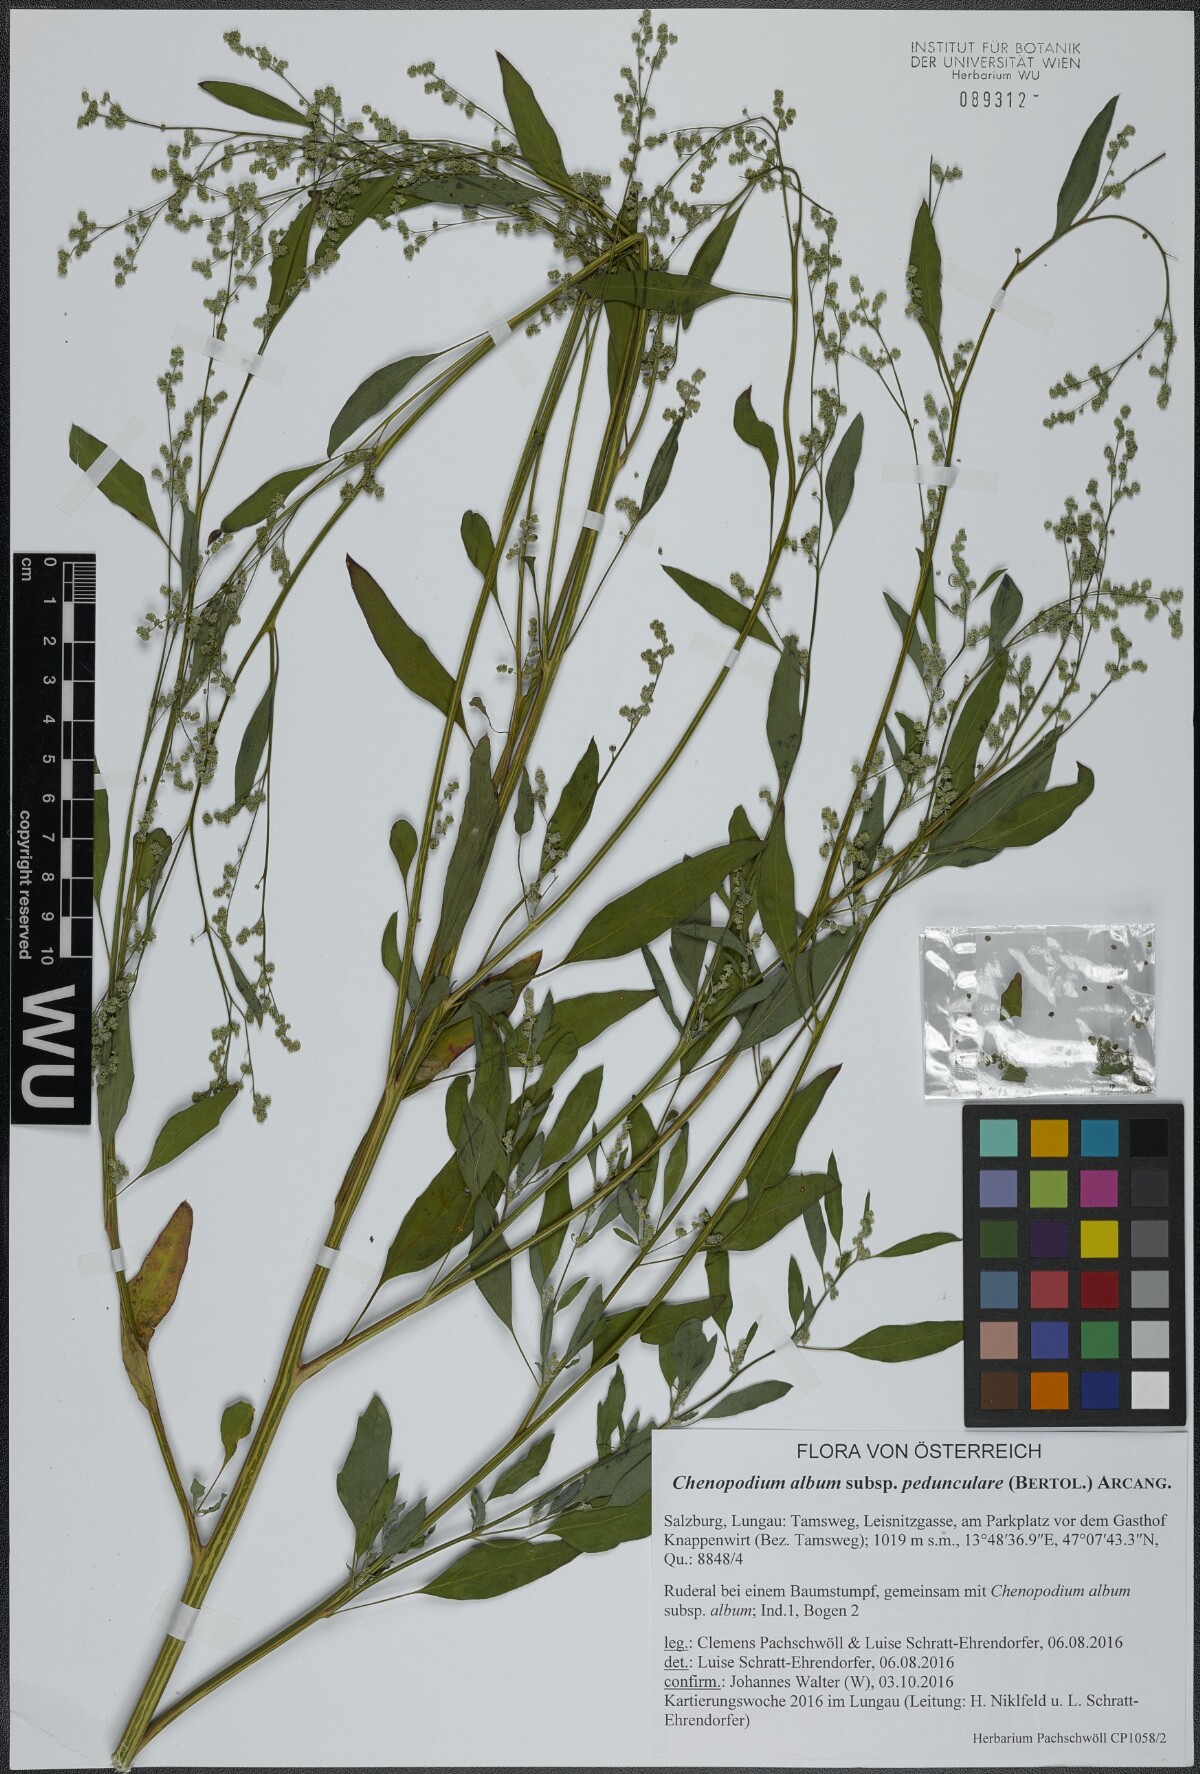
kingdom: Plantae
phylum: Tracheophyta
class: Magnoliopsida
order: Caryophyllales
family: Amaranthaceae
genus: Chenopodium
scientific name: Chenopodium album
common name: Fat-hen
